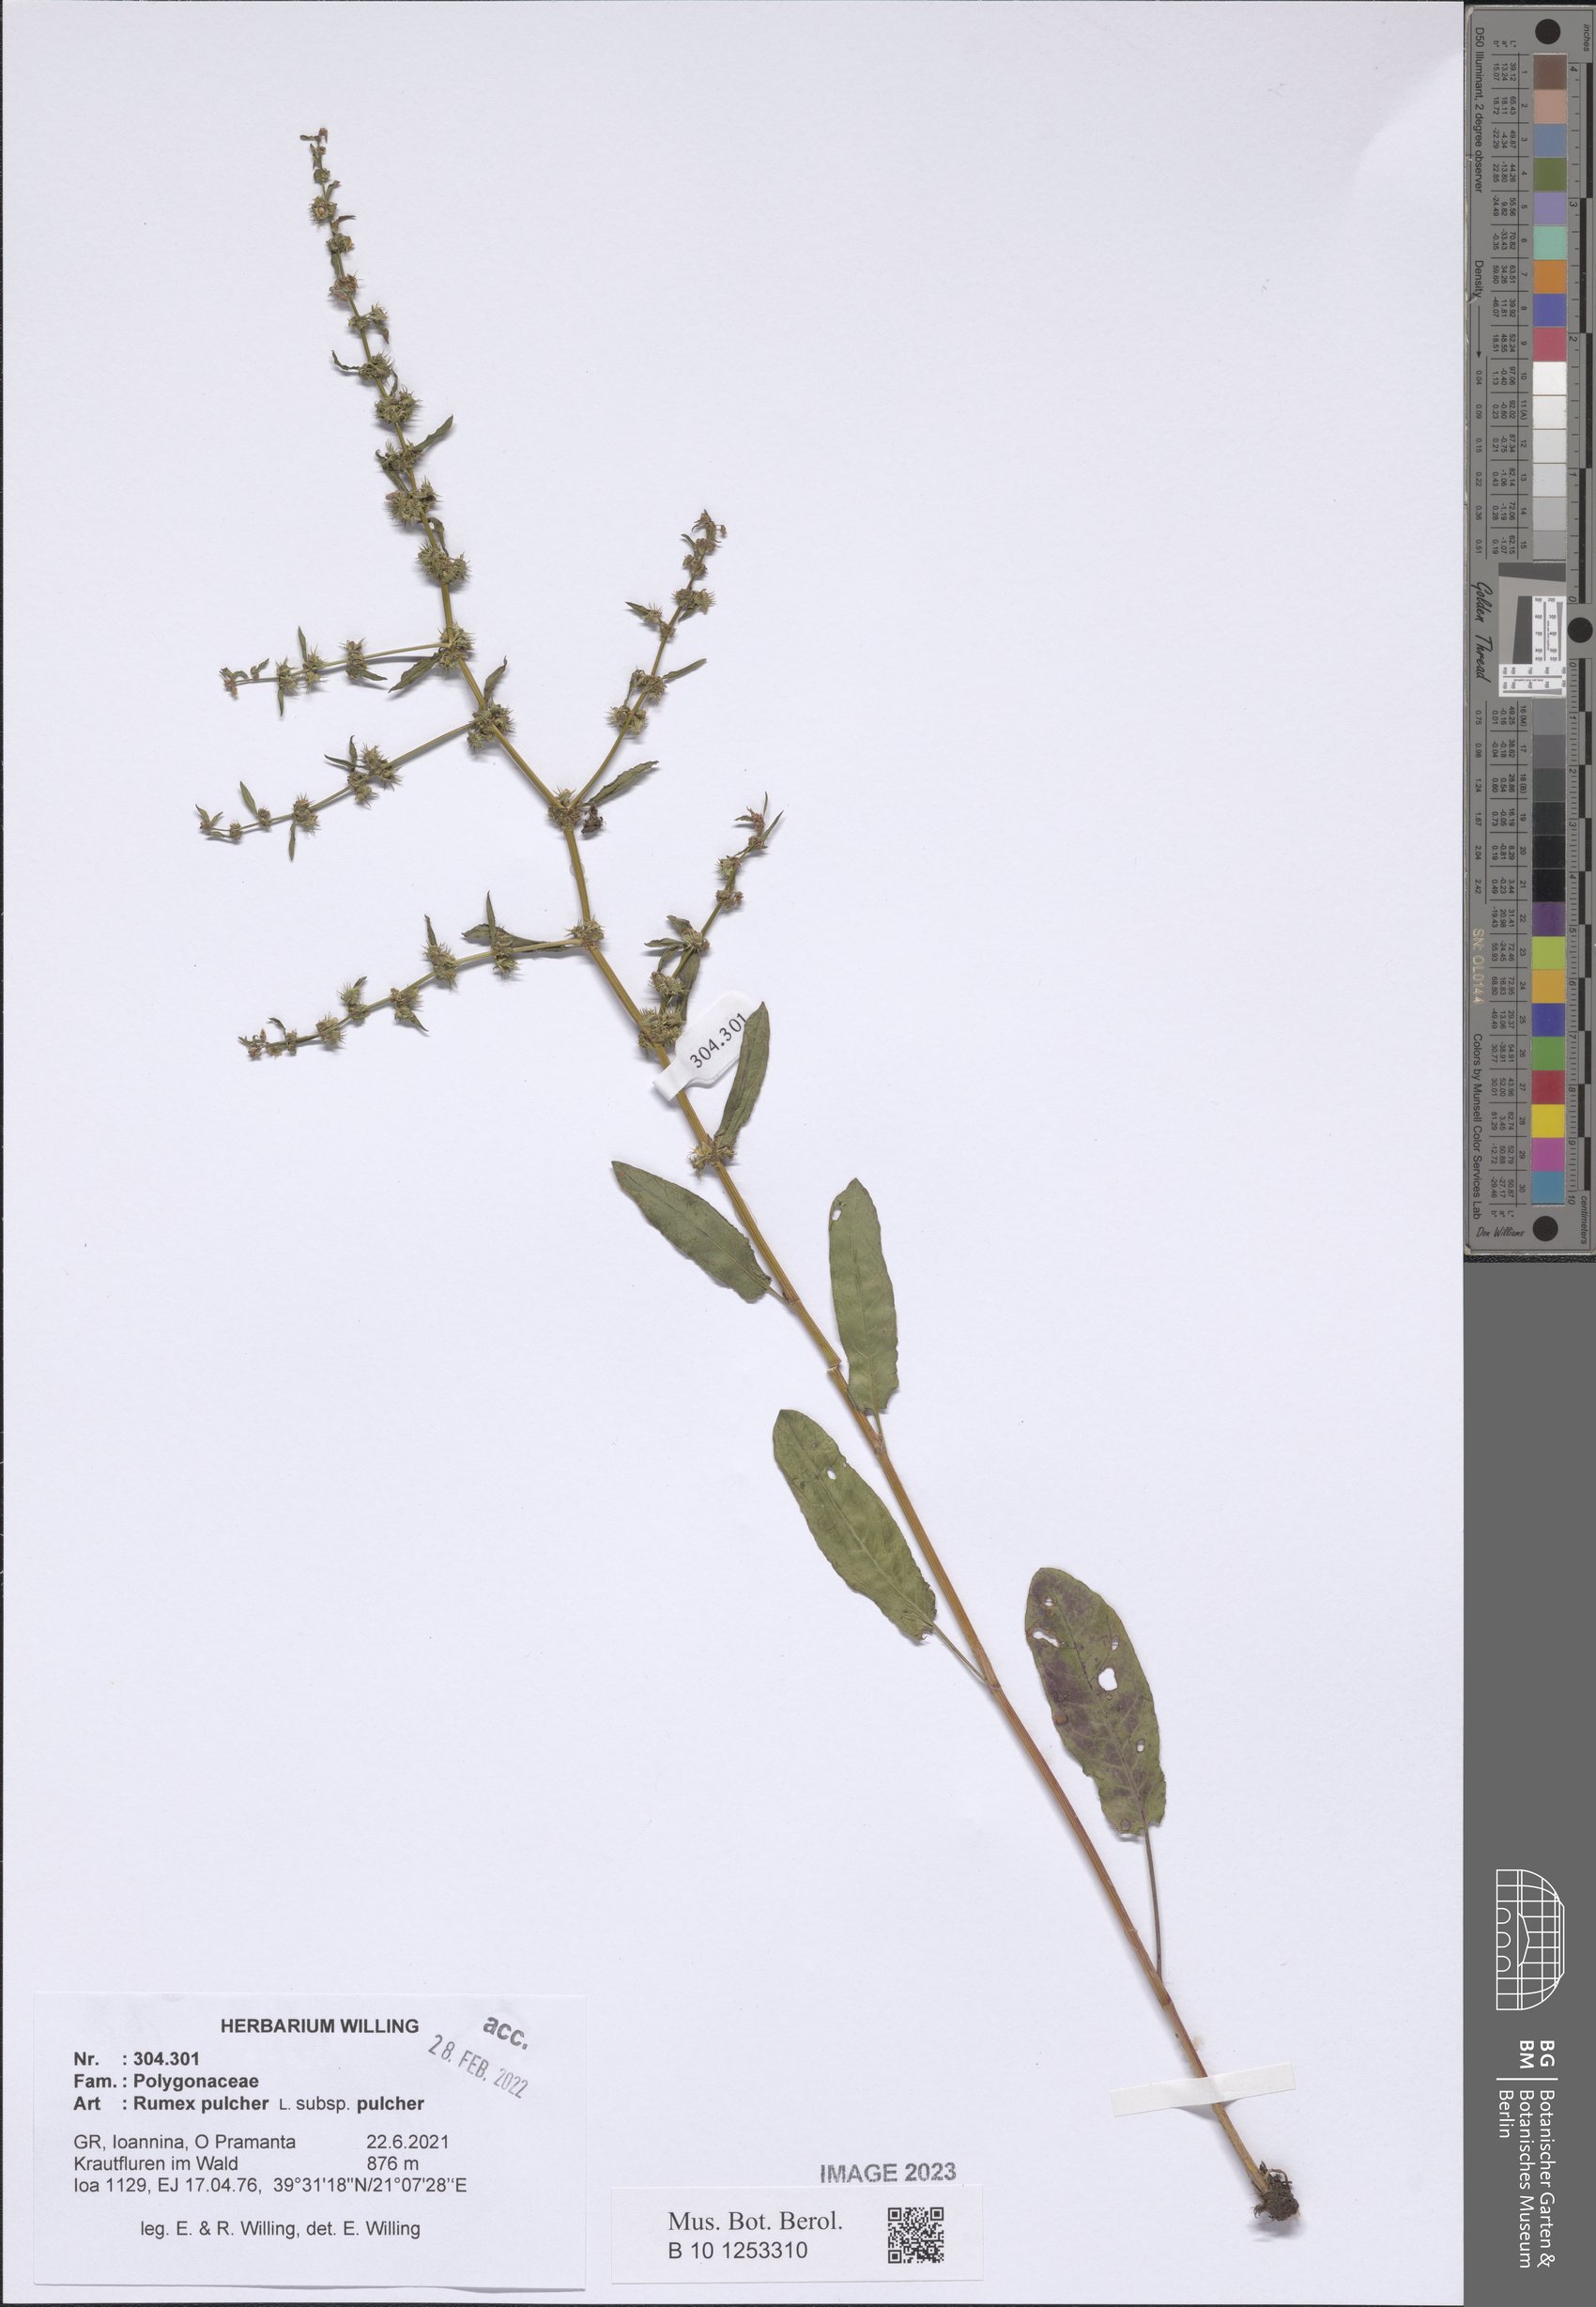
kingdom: Plantae
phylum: Tracheophyta
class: Magnoliopsida
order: Caryophyllales
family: Polygonaceae
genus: Rumex
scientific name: Rumex pulcher
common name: Fiddle dock
